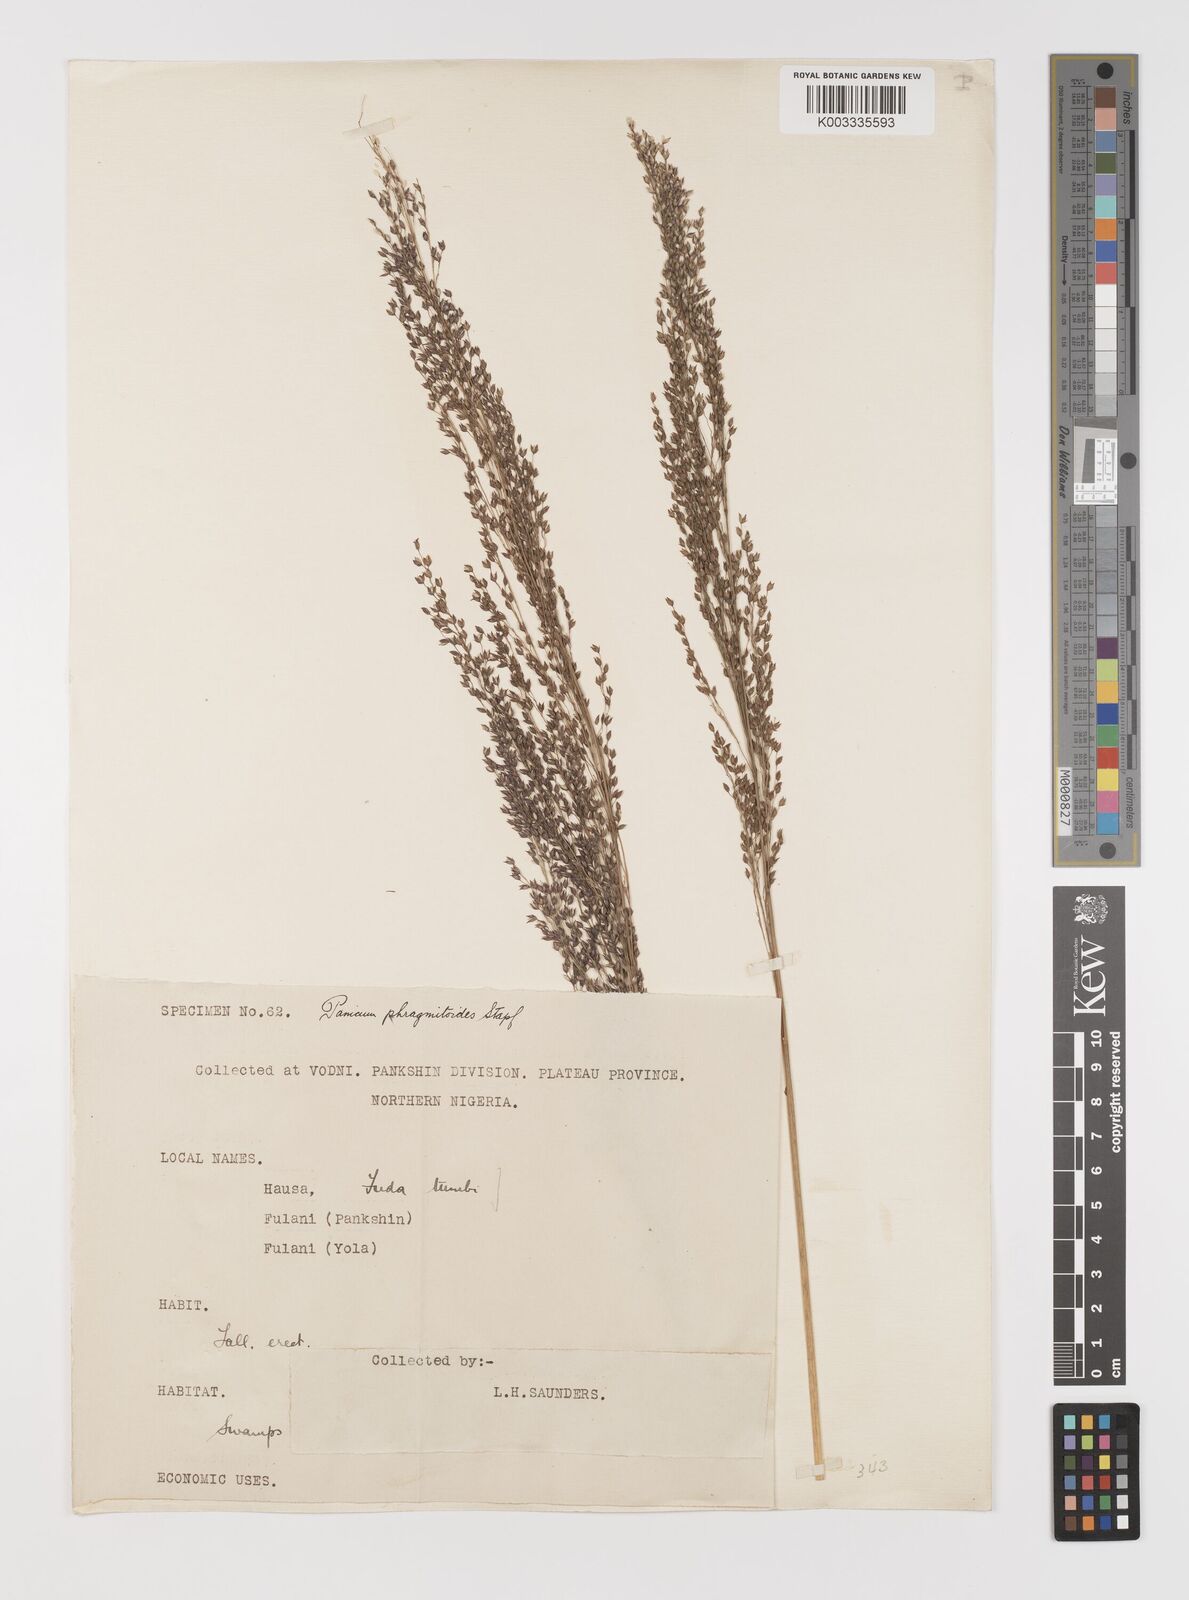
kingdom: Plantae
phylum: Tracheophyta
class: Liliopsida
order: Poales
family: Poaceae
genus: Panicum
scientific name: Panicum phragmitoides
